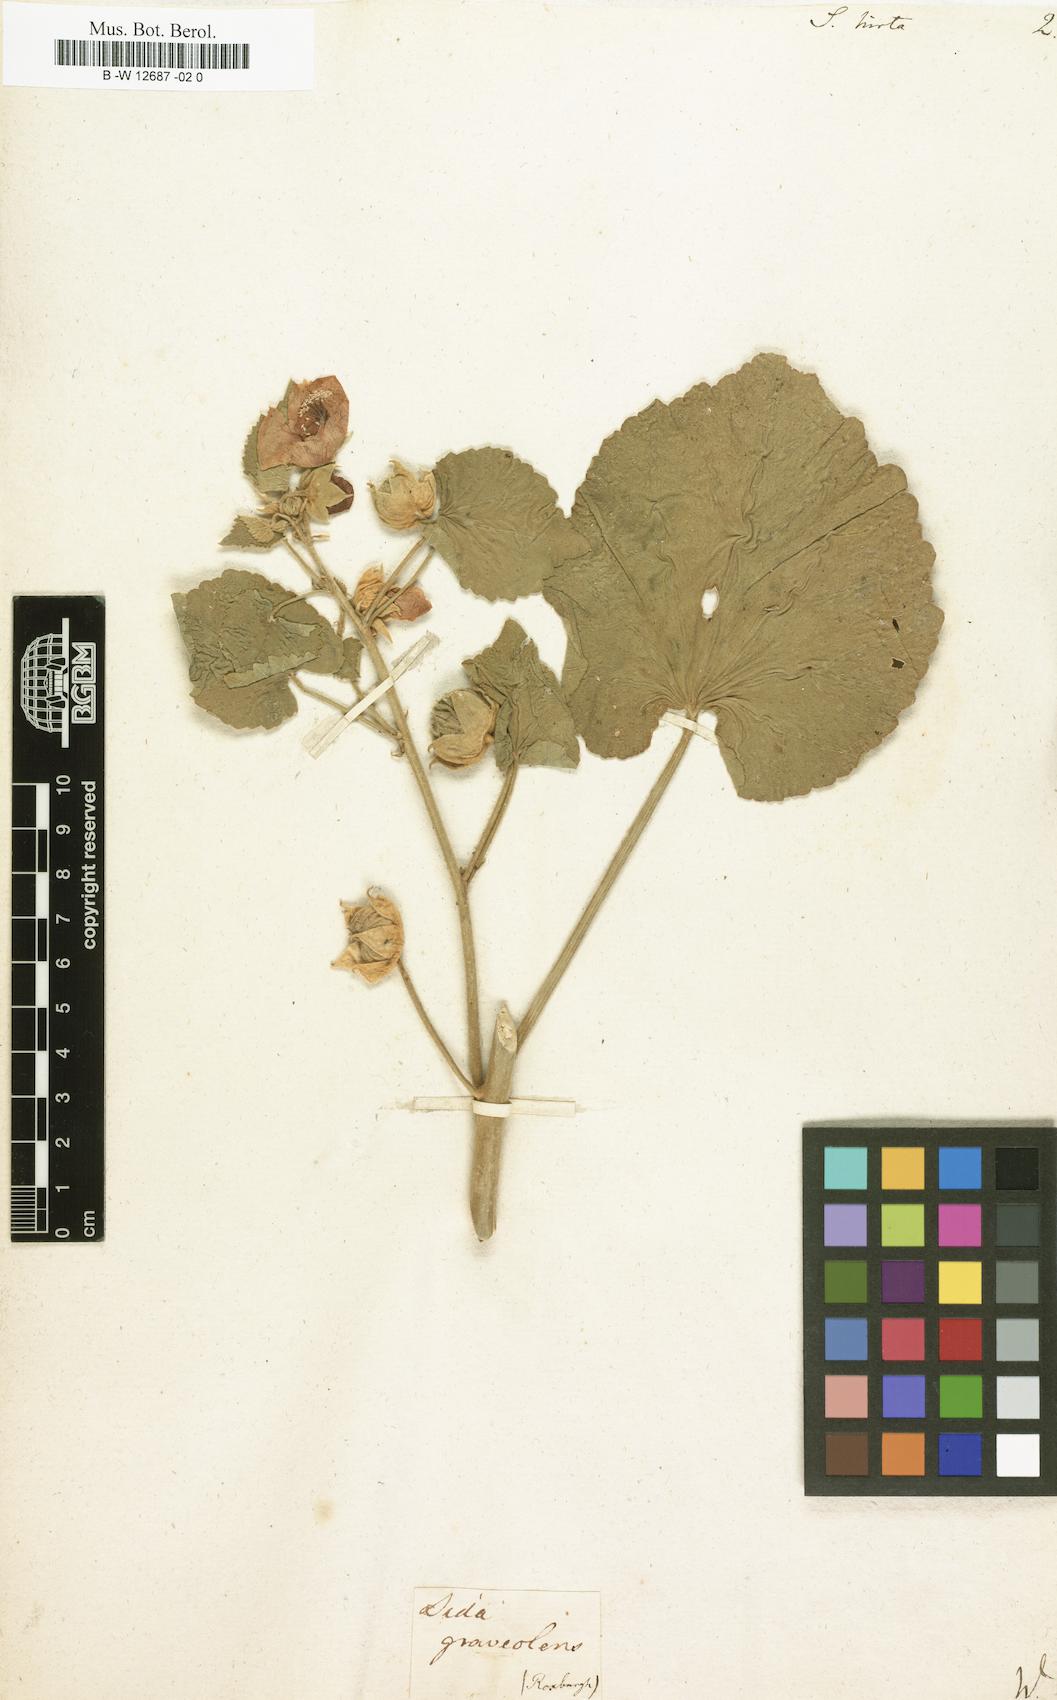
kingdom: Plantae
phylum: Tracheophyta
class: Magnoliopsida
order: Malvales
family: Malvaceae
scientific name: Malvaceae
